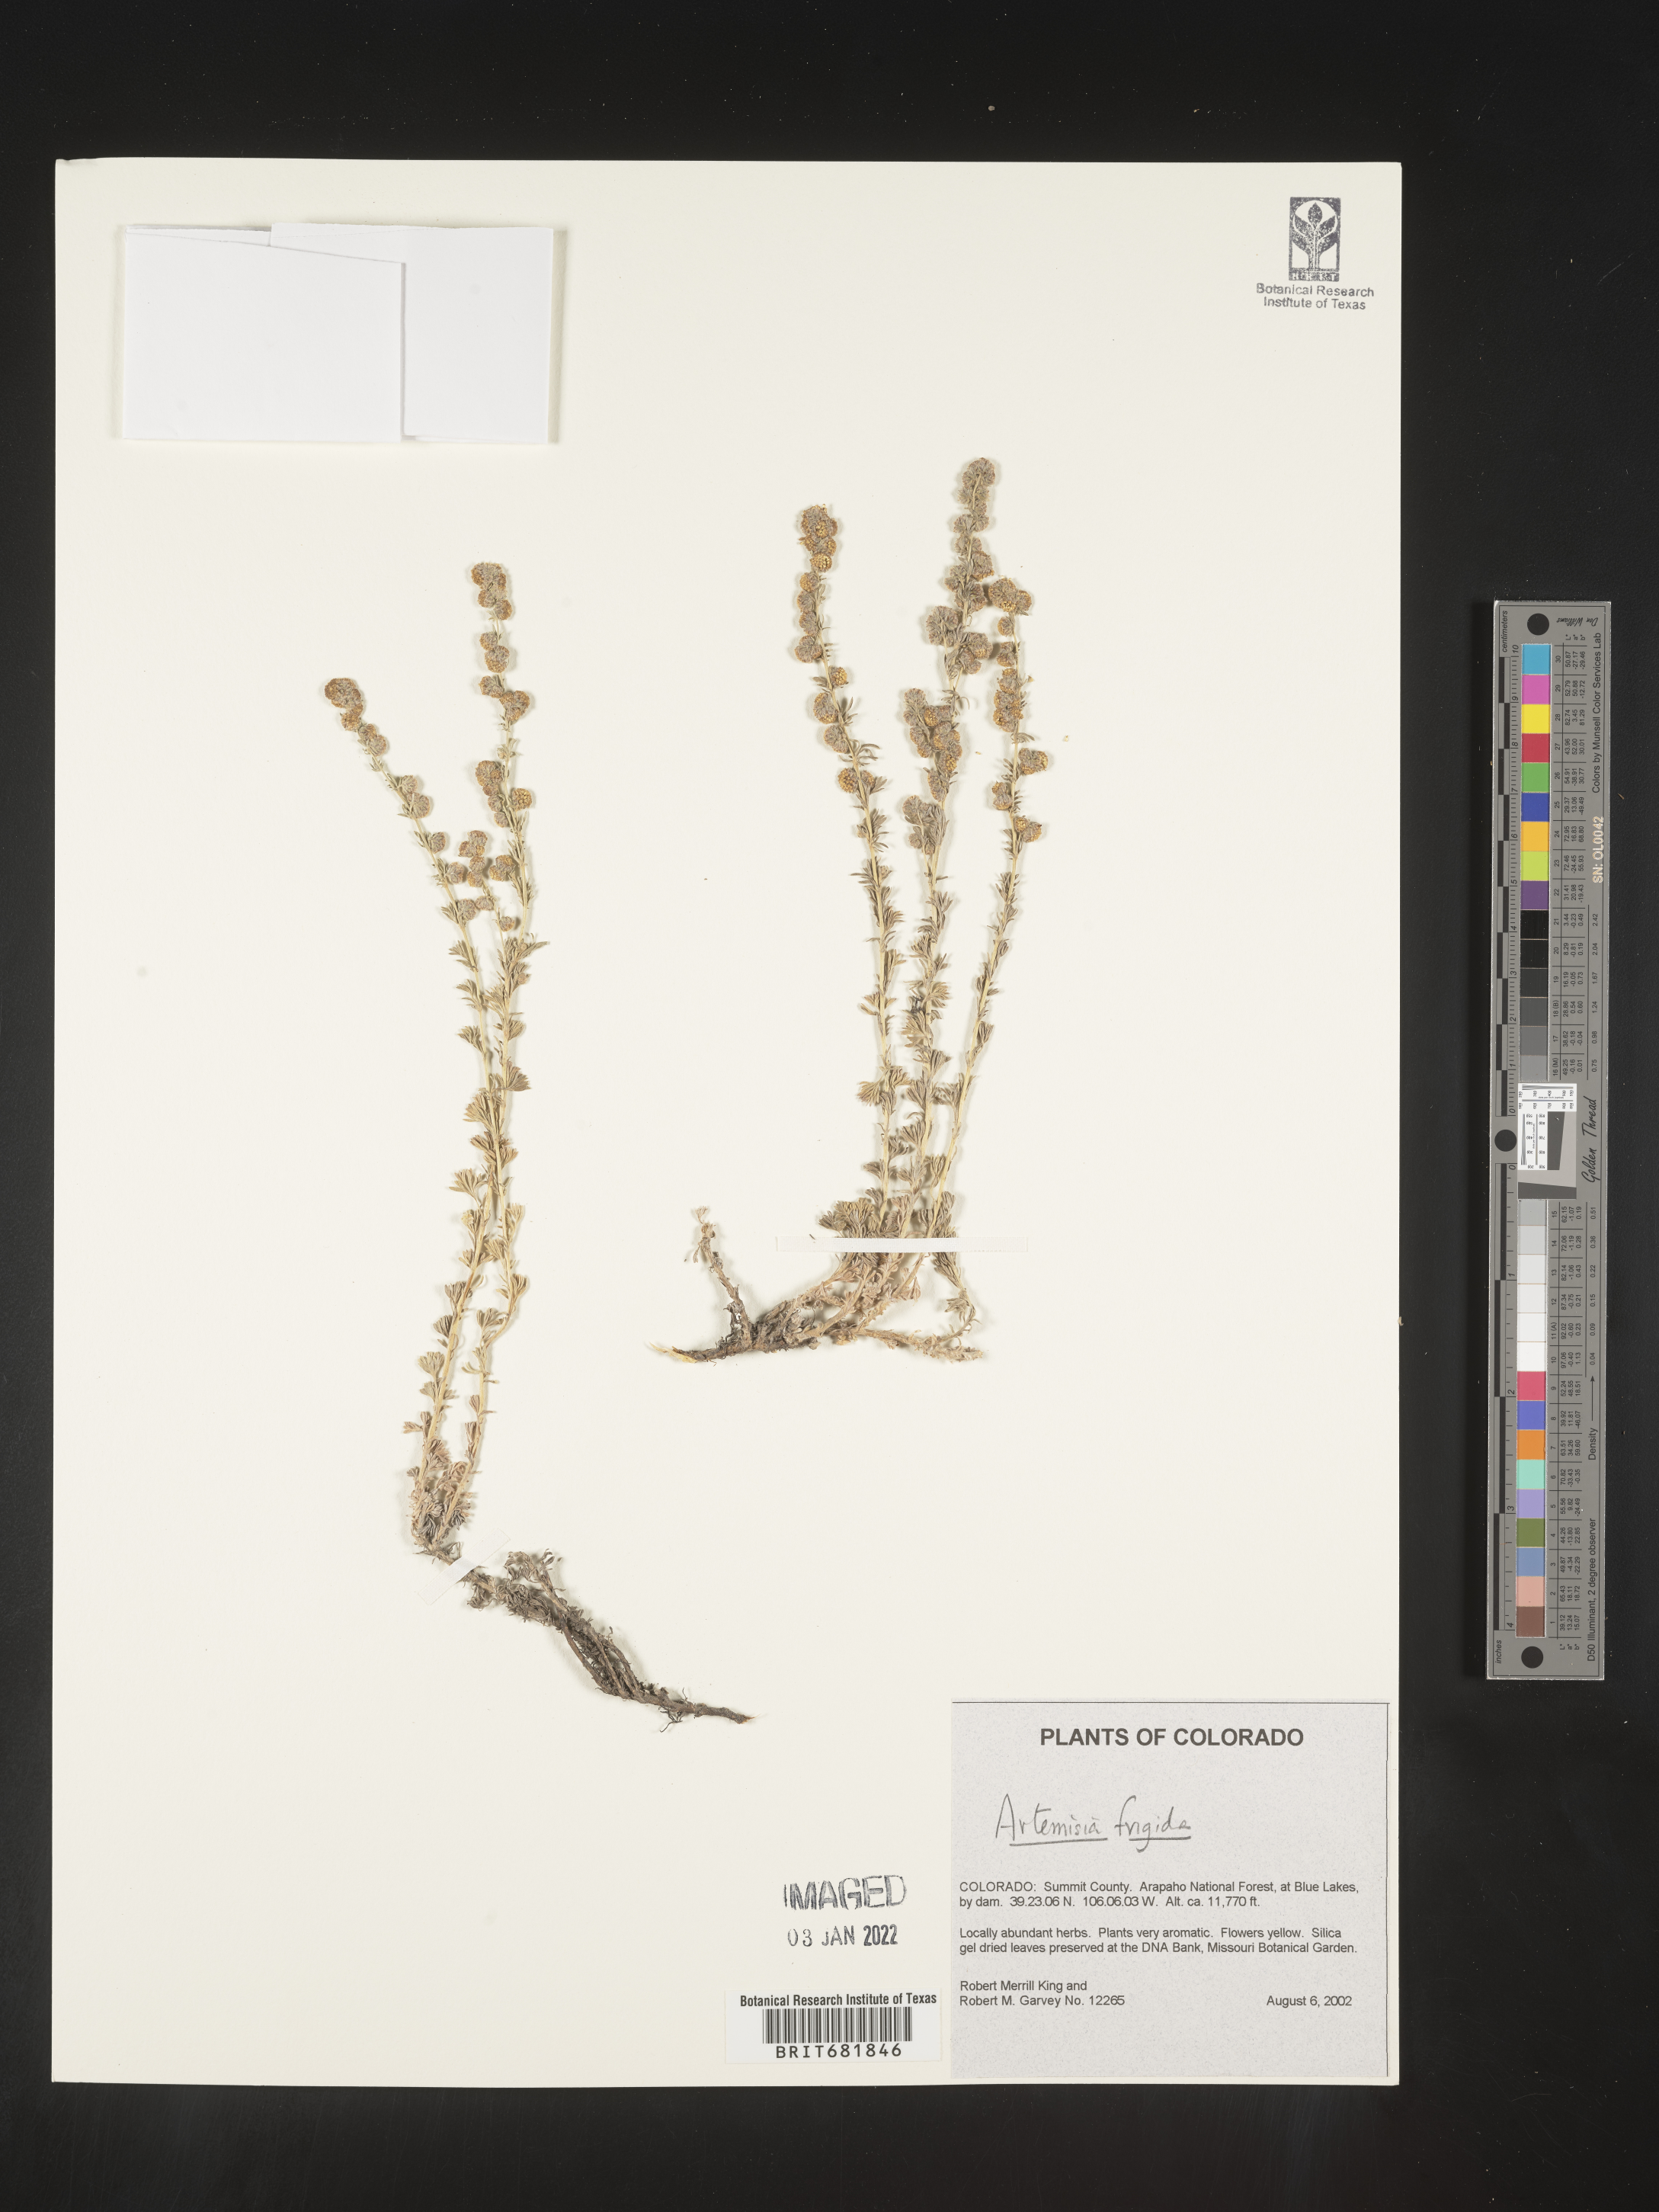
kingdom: Plantae
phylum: Tracheophyta
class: Magnoliopsida
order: Asterales
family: Asteraceae
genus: Artemisia
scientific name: Artemisia frigida
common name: Prairie sagewort
